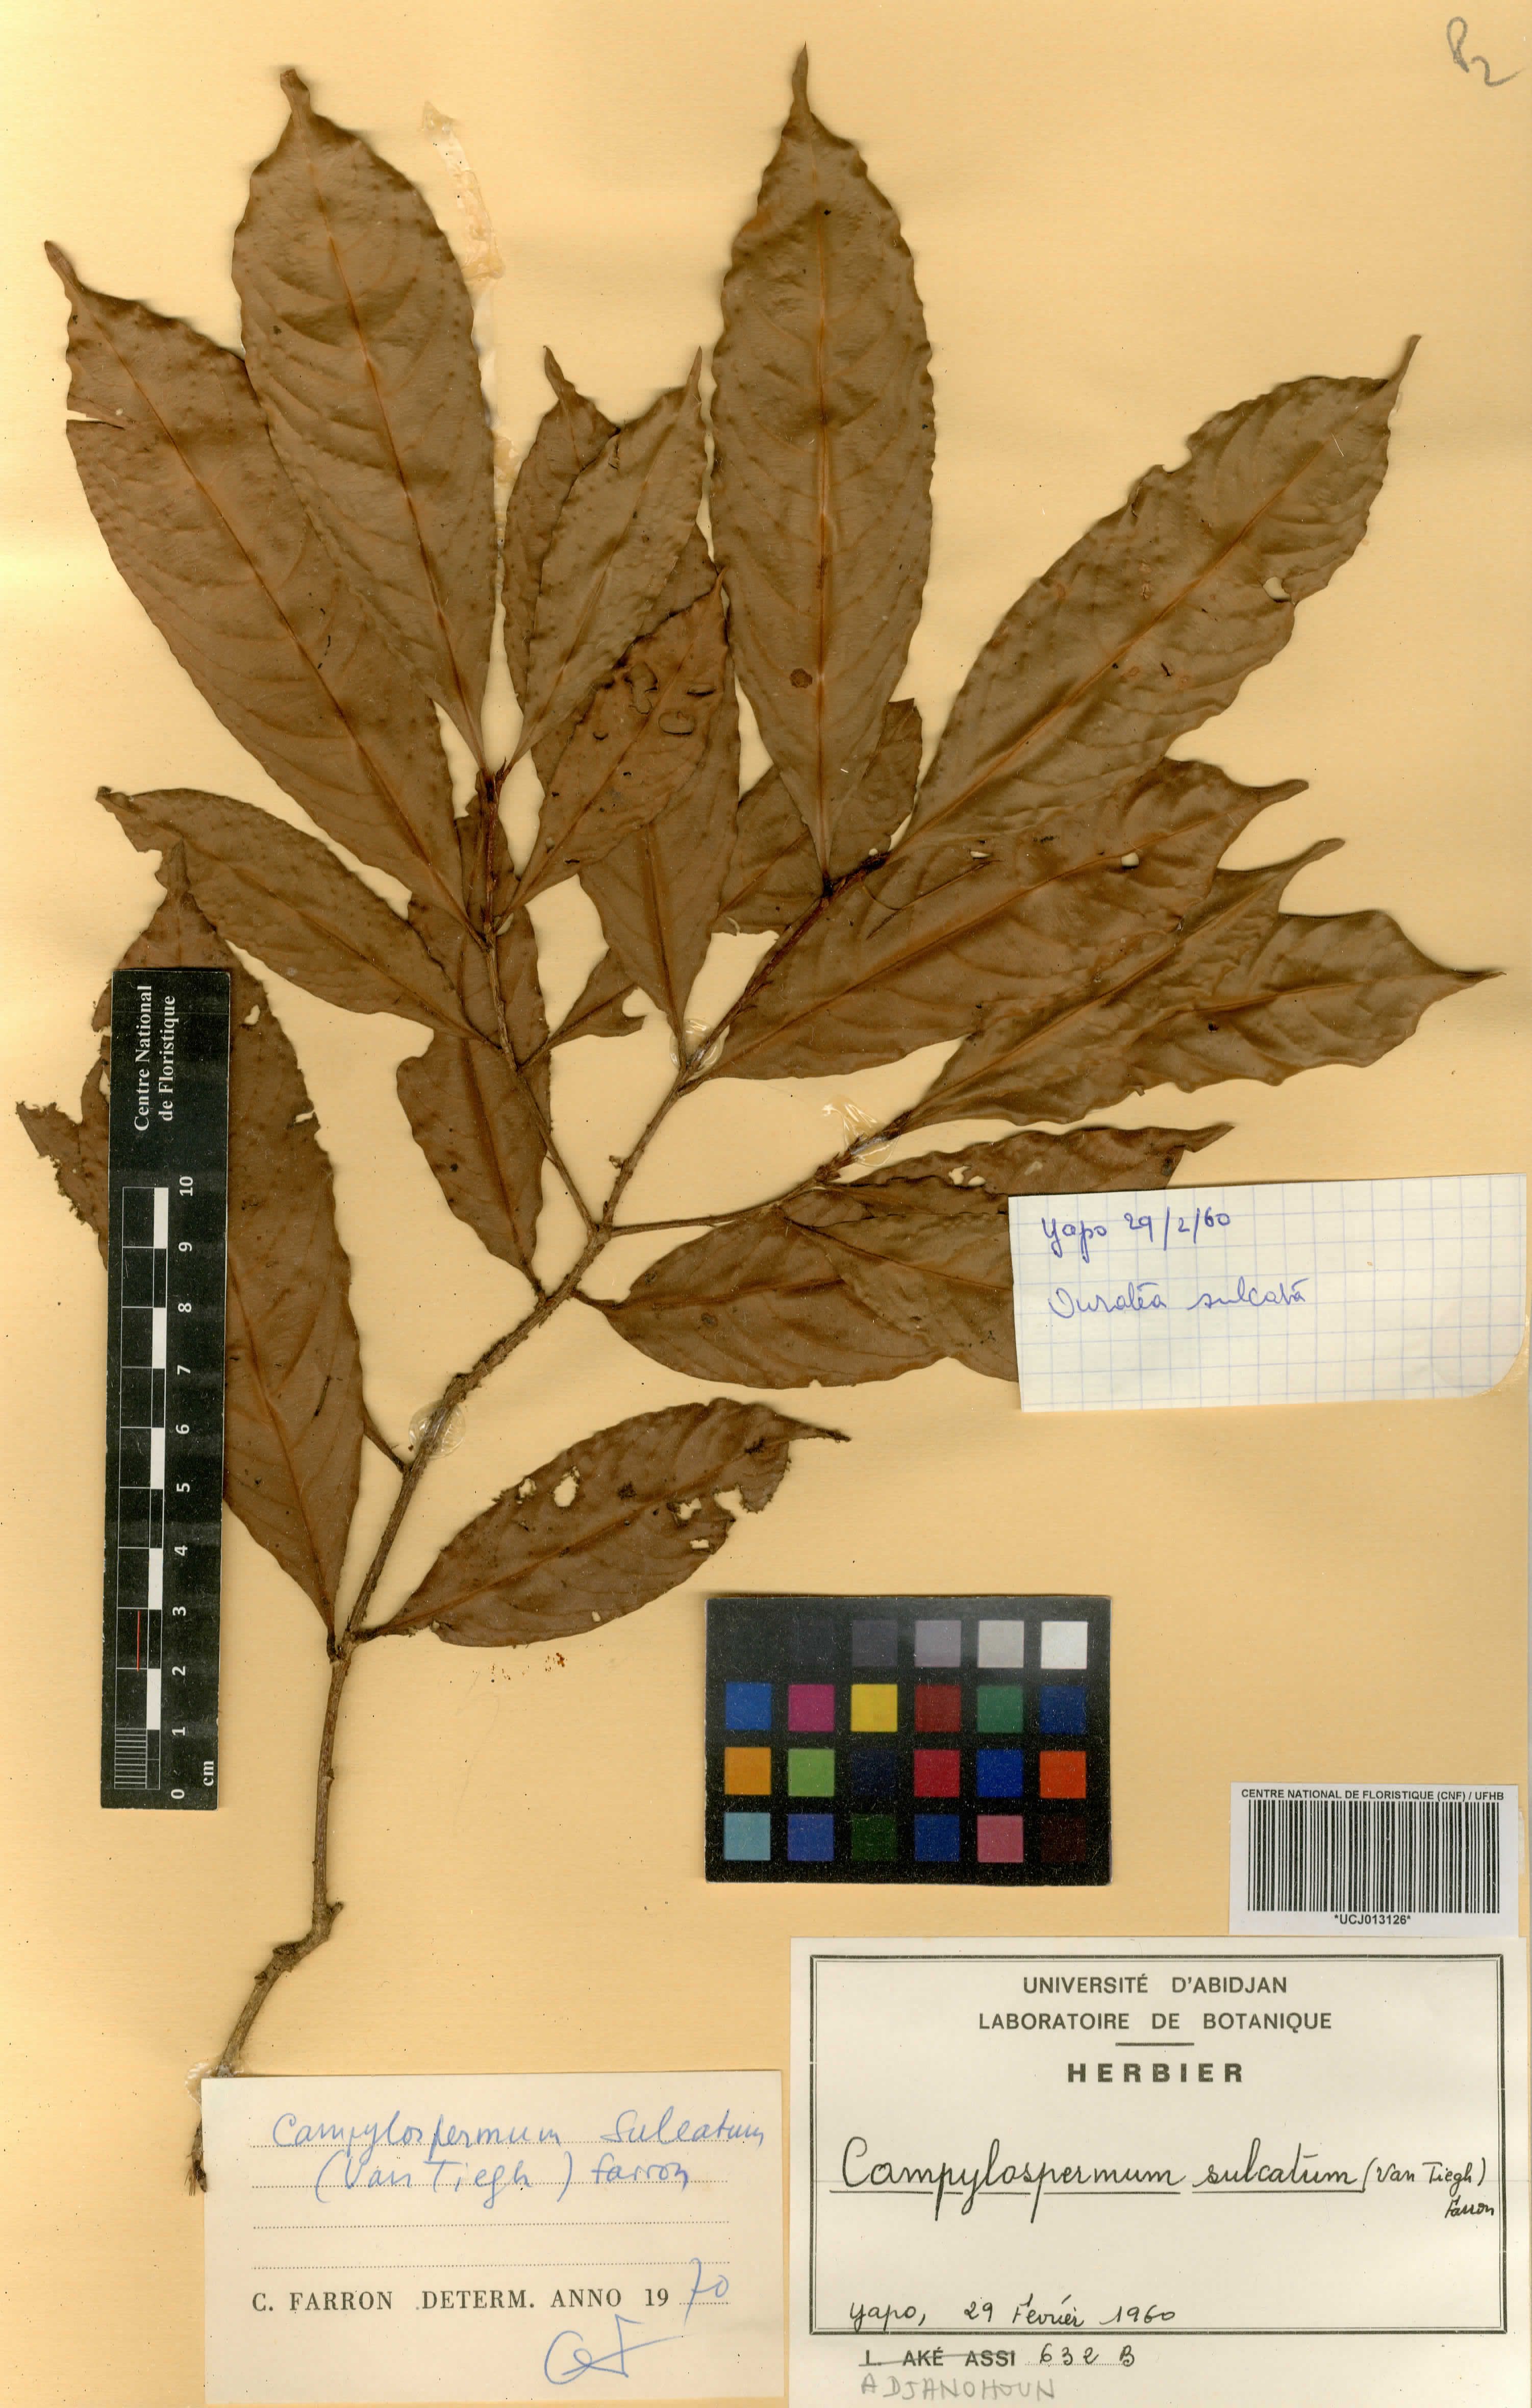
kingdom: Plantae
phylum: Tracheophyta
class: Magnoliopsida
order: Malpighiales
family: Ochnaceae
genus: Campylospermum
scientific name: Campylospermum sulcatum
